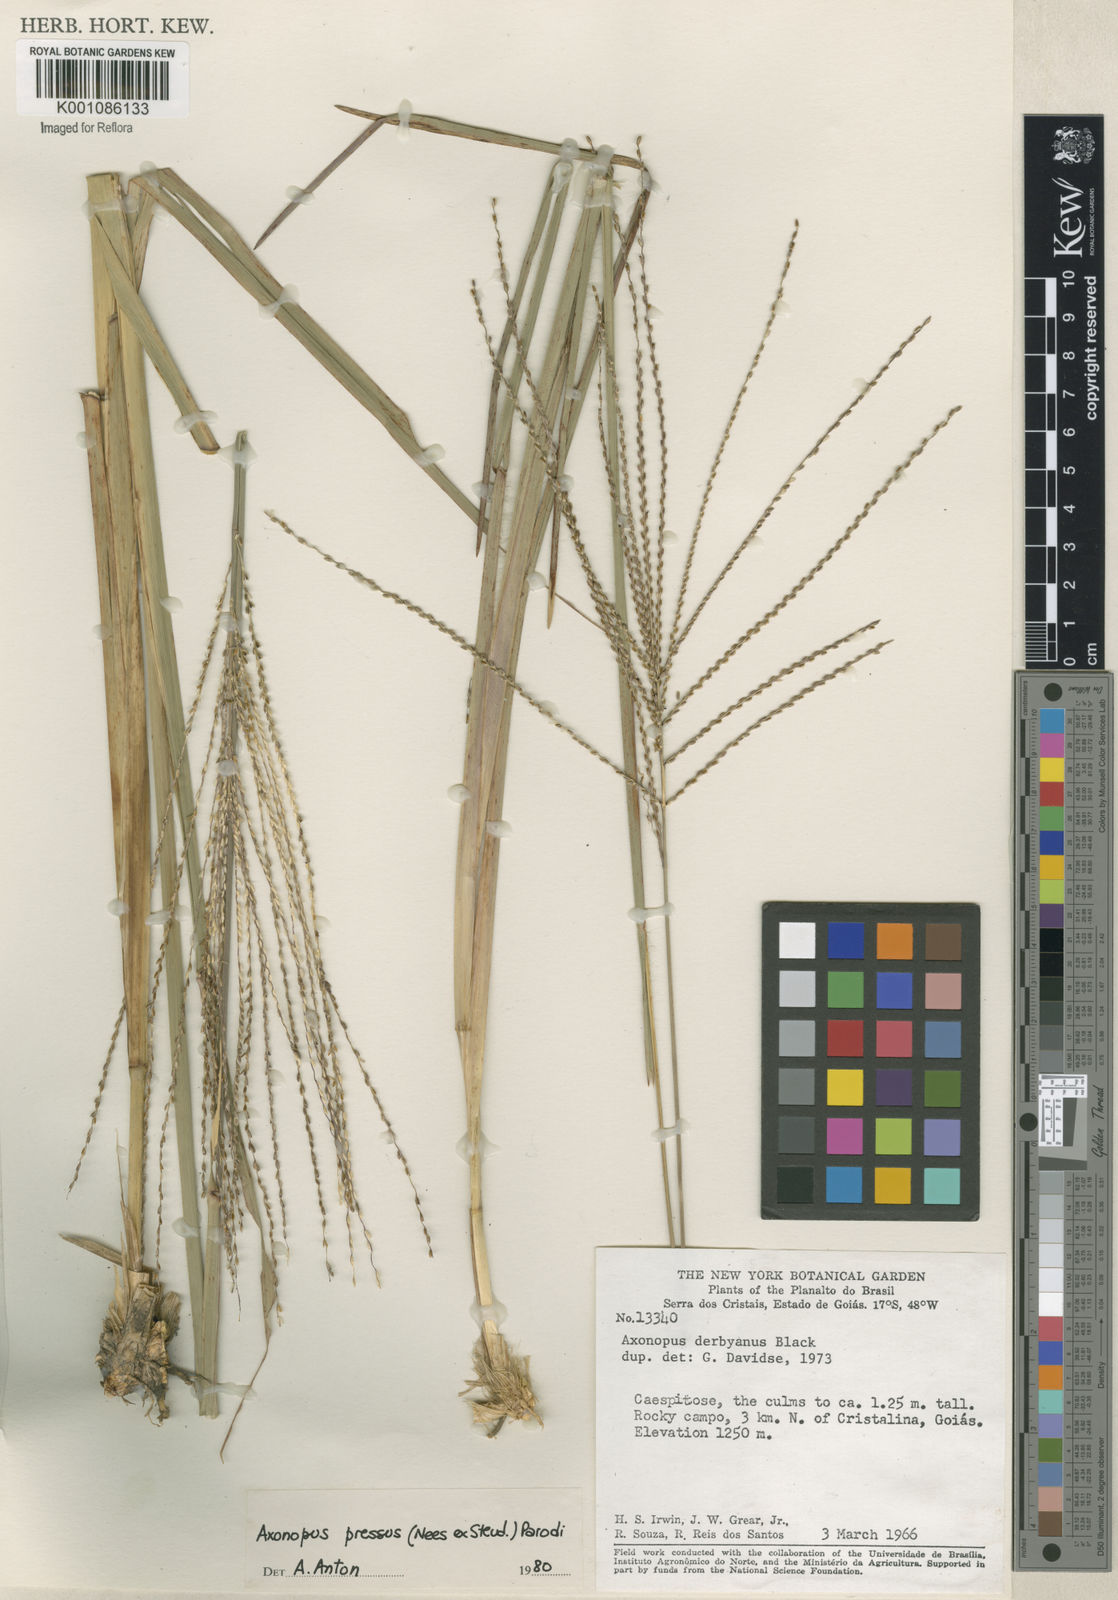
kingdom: Plantae
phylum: Tracheophyta
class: Liliopsida
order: Poales
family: Poaceae
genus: Axonopus
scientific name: Axonopus pressus
